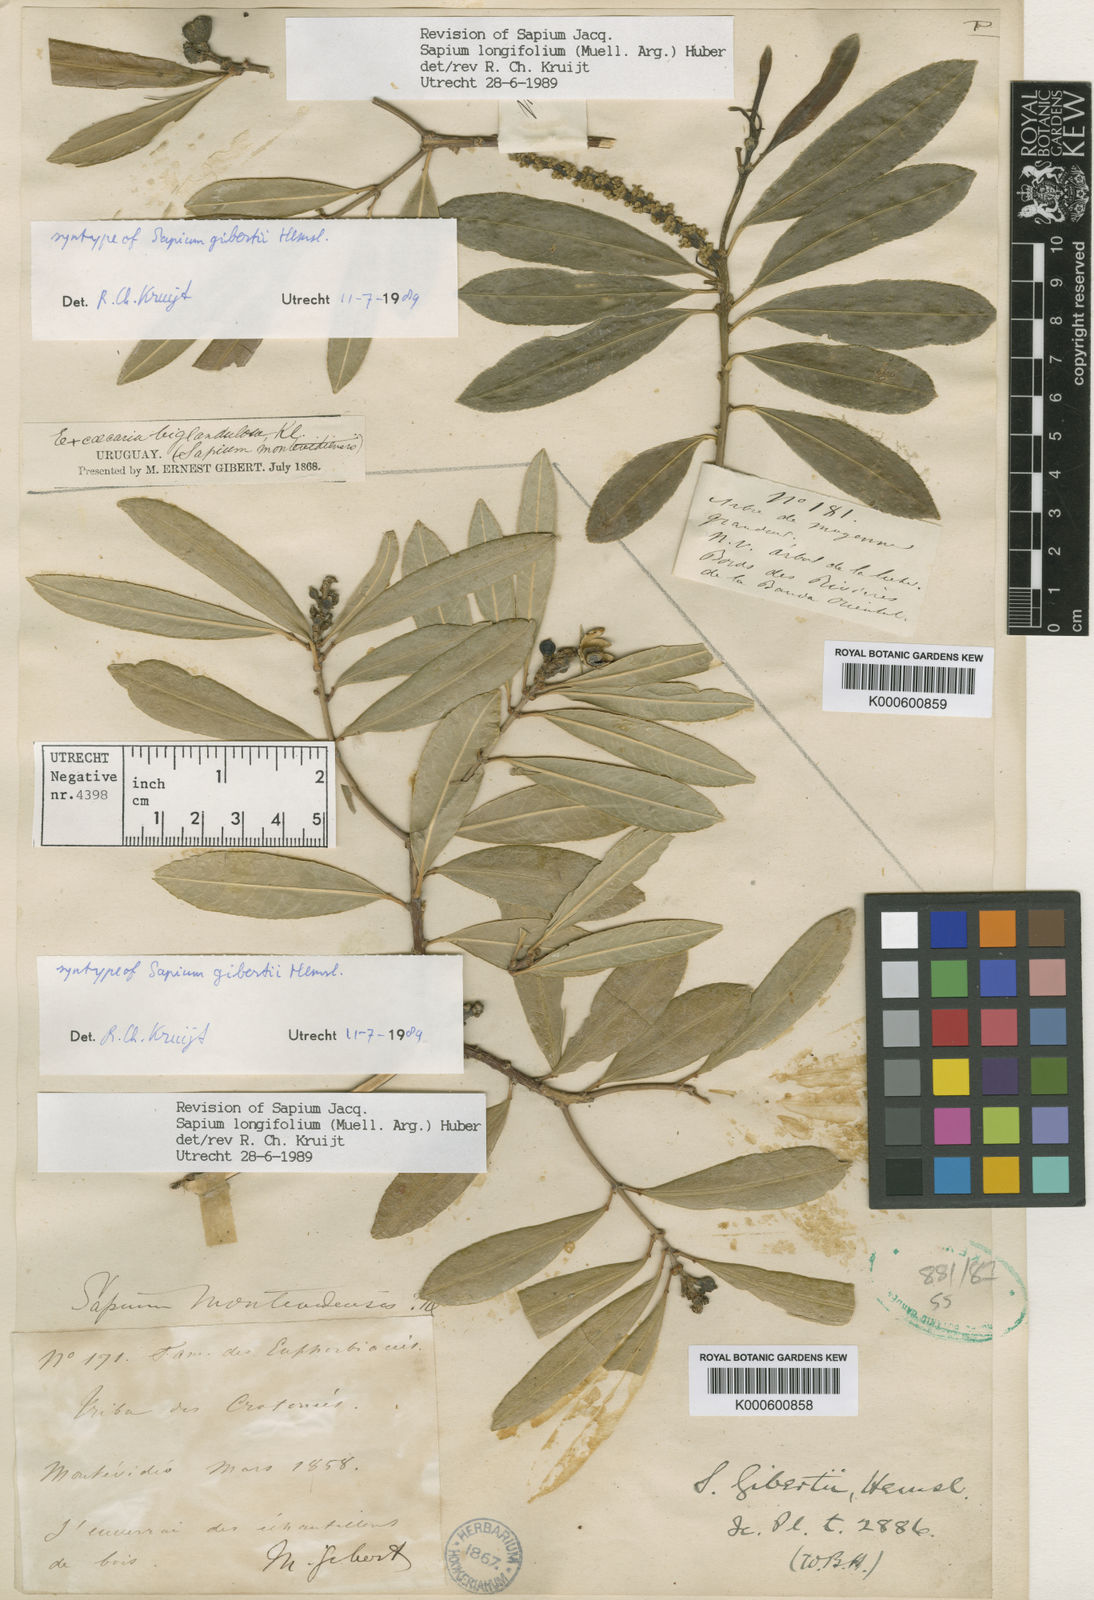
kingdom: Plantae
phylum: Tracheophyta
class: Magnoliopsida
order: Malpighiales
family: Euphorbiaceae
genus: Sapium
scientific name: Sapium haematospermum
